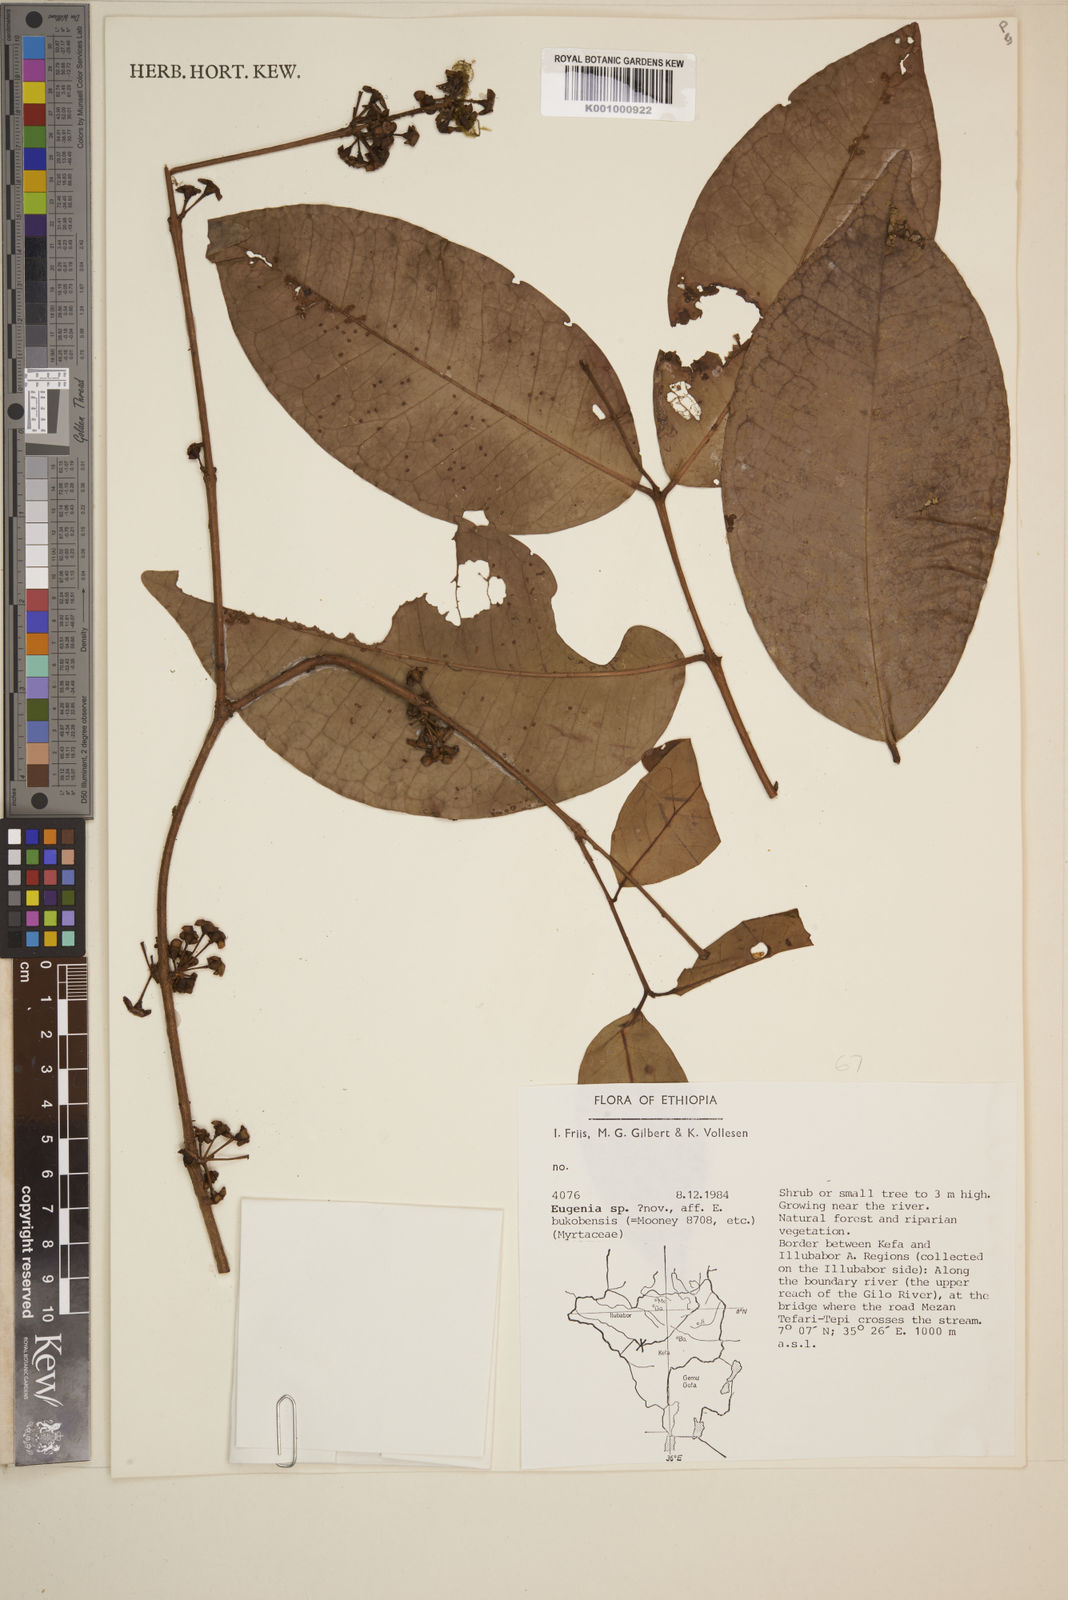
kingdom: Plantae
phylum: Tracheophyta
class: Magnoliopsida
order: Myrtales
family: Myrtaceae
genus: Eugenia
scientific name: Eugenia bukobensis
